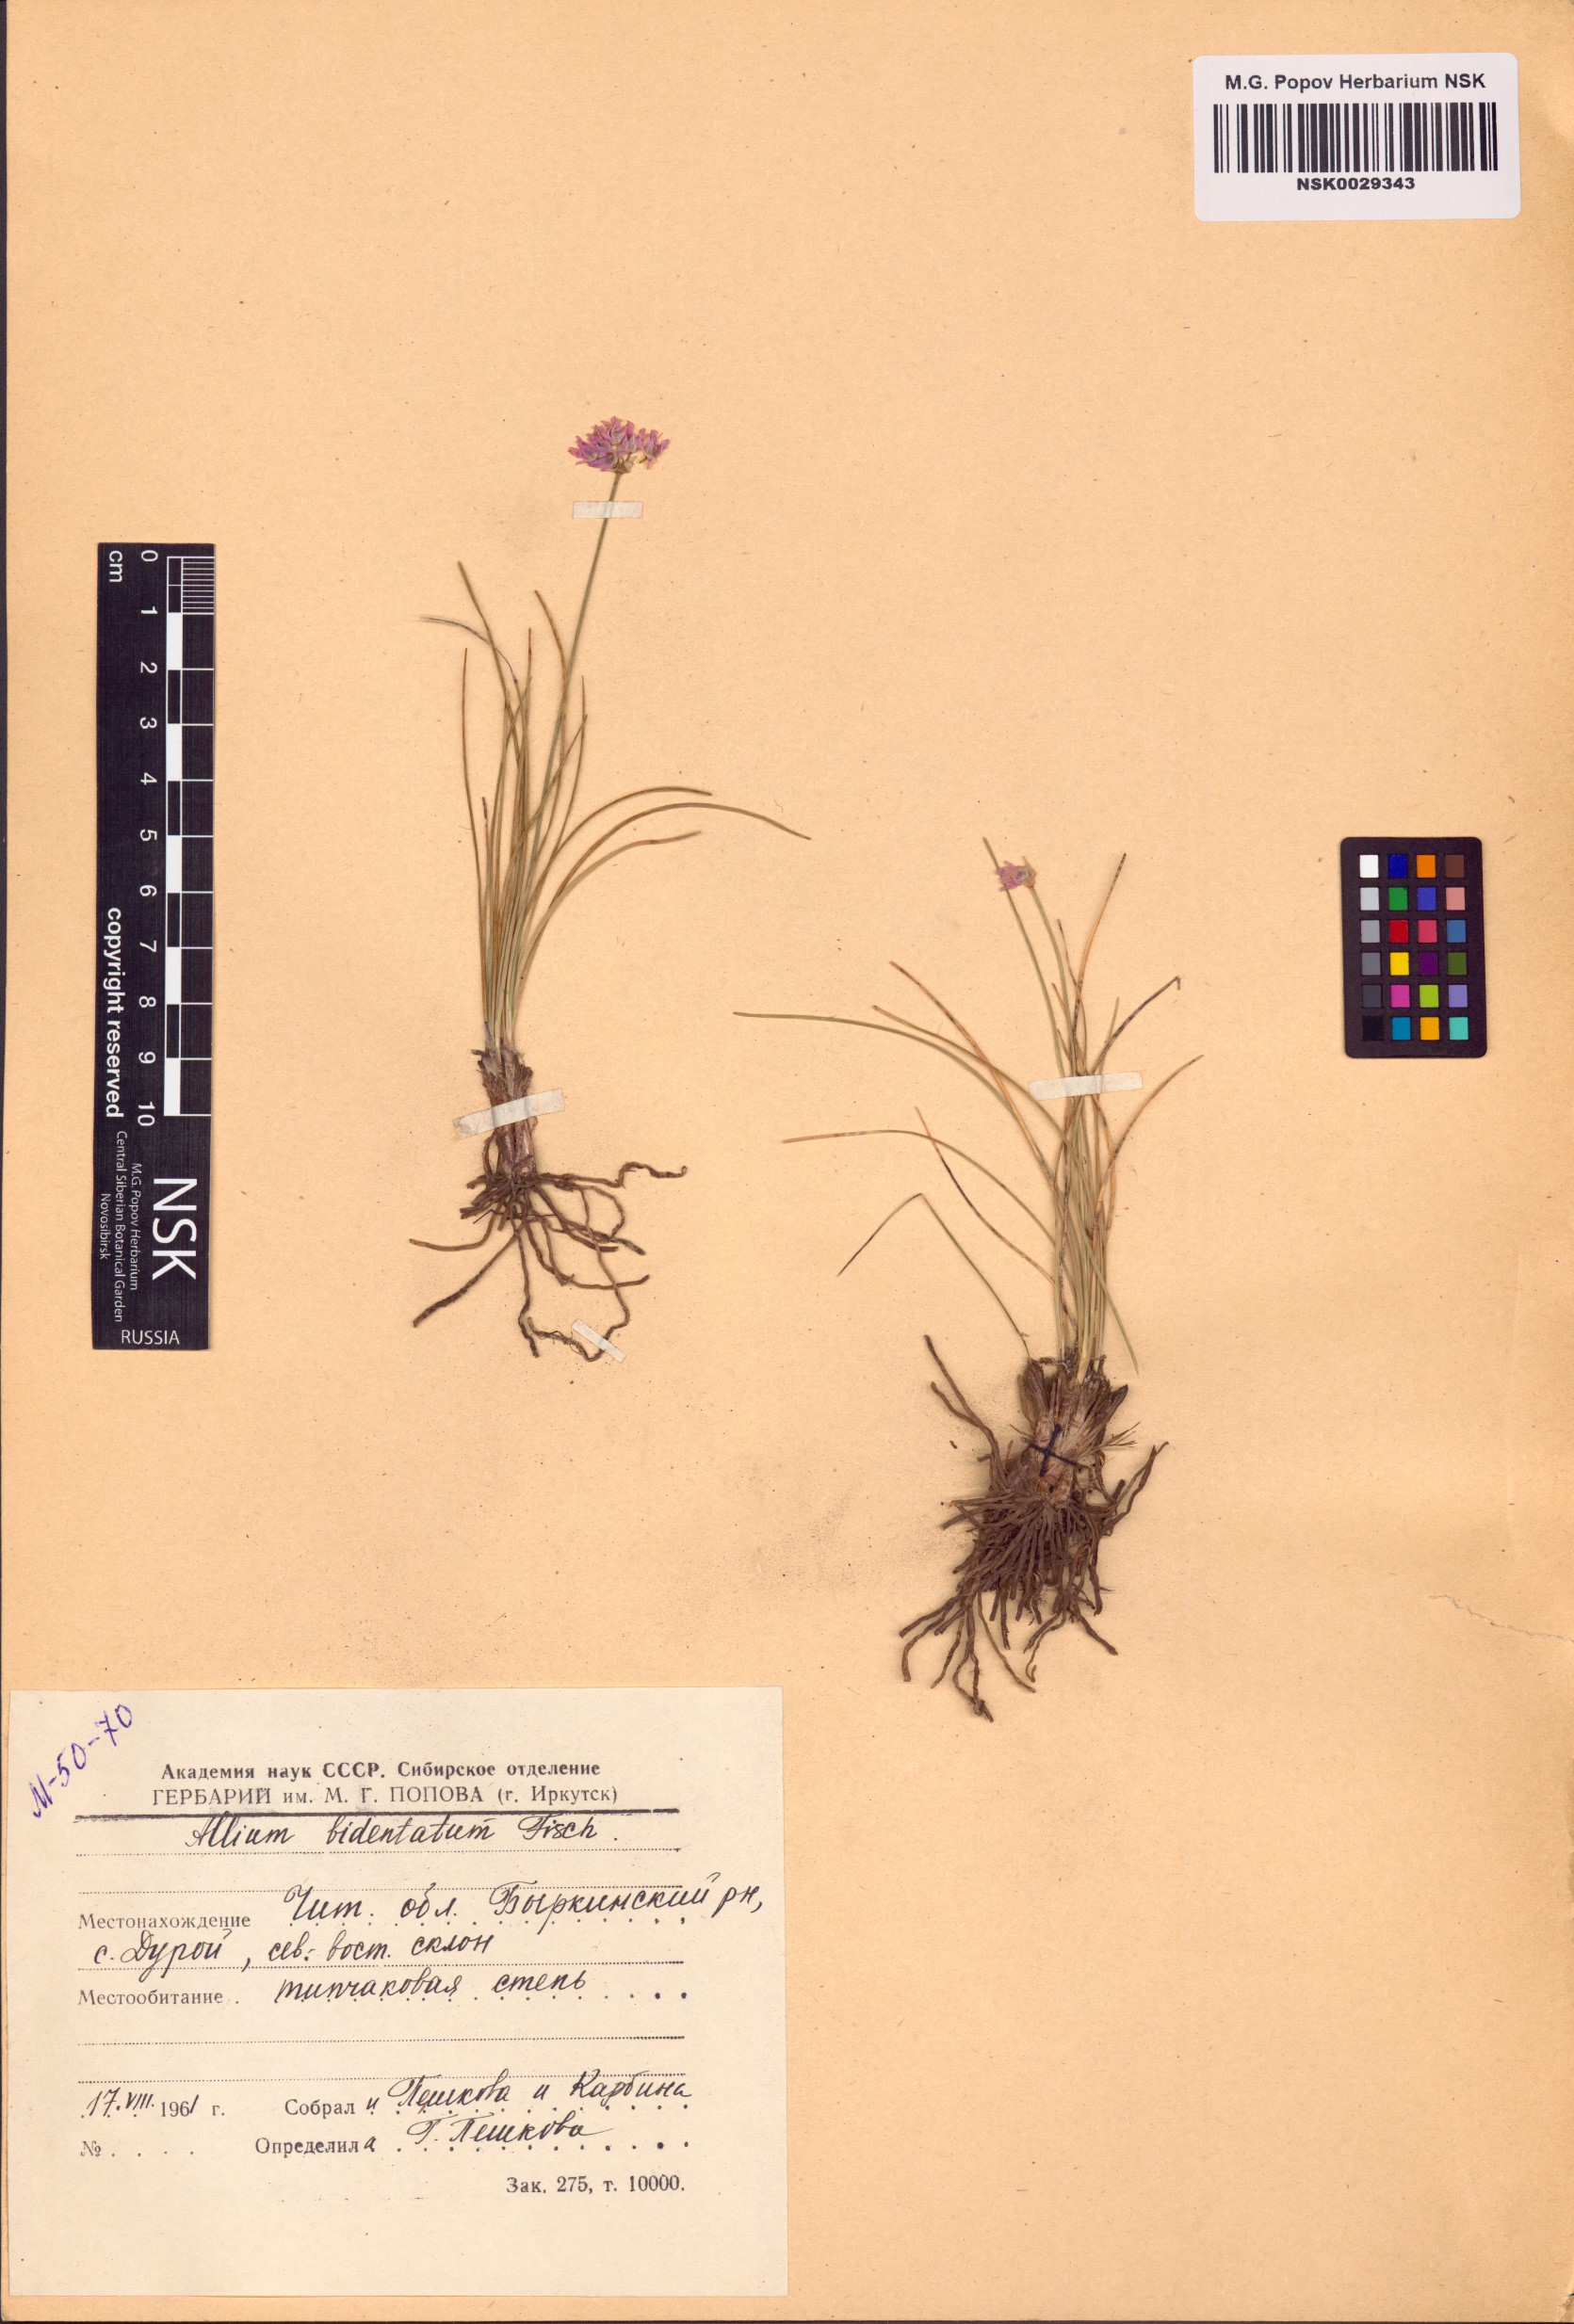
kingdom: Plantae
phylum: Tracheophyta
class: Liliopsida
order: Asparagales
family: Amaryllidaceae
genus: Allium
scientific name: Allium bidentatum
